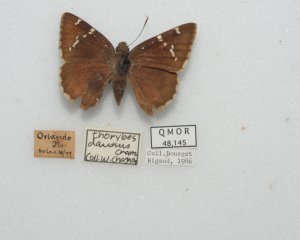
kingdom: Animalia
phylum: Arthropoda
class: Insecta
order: Lepidoptera
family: Hesperiidae
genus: Autochton
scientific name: Autochton
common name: Southern Cloudywing
